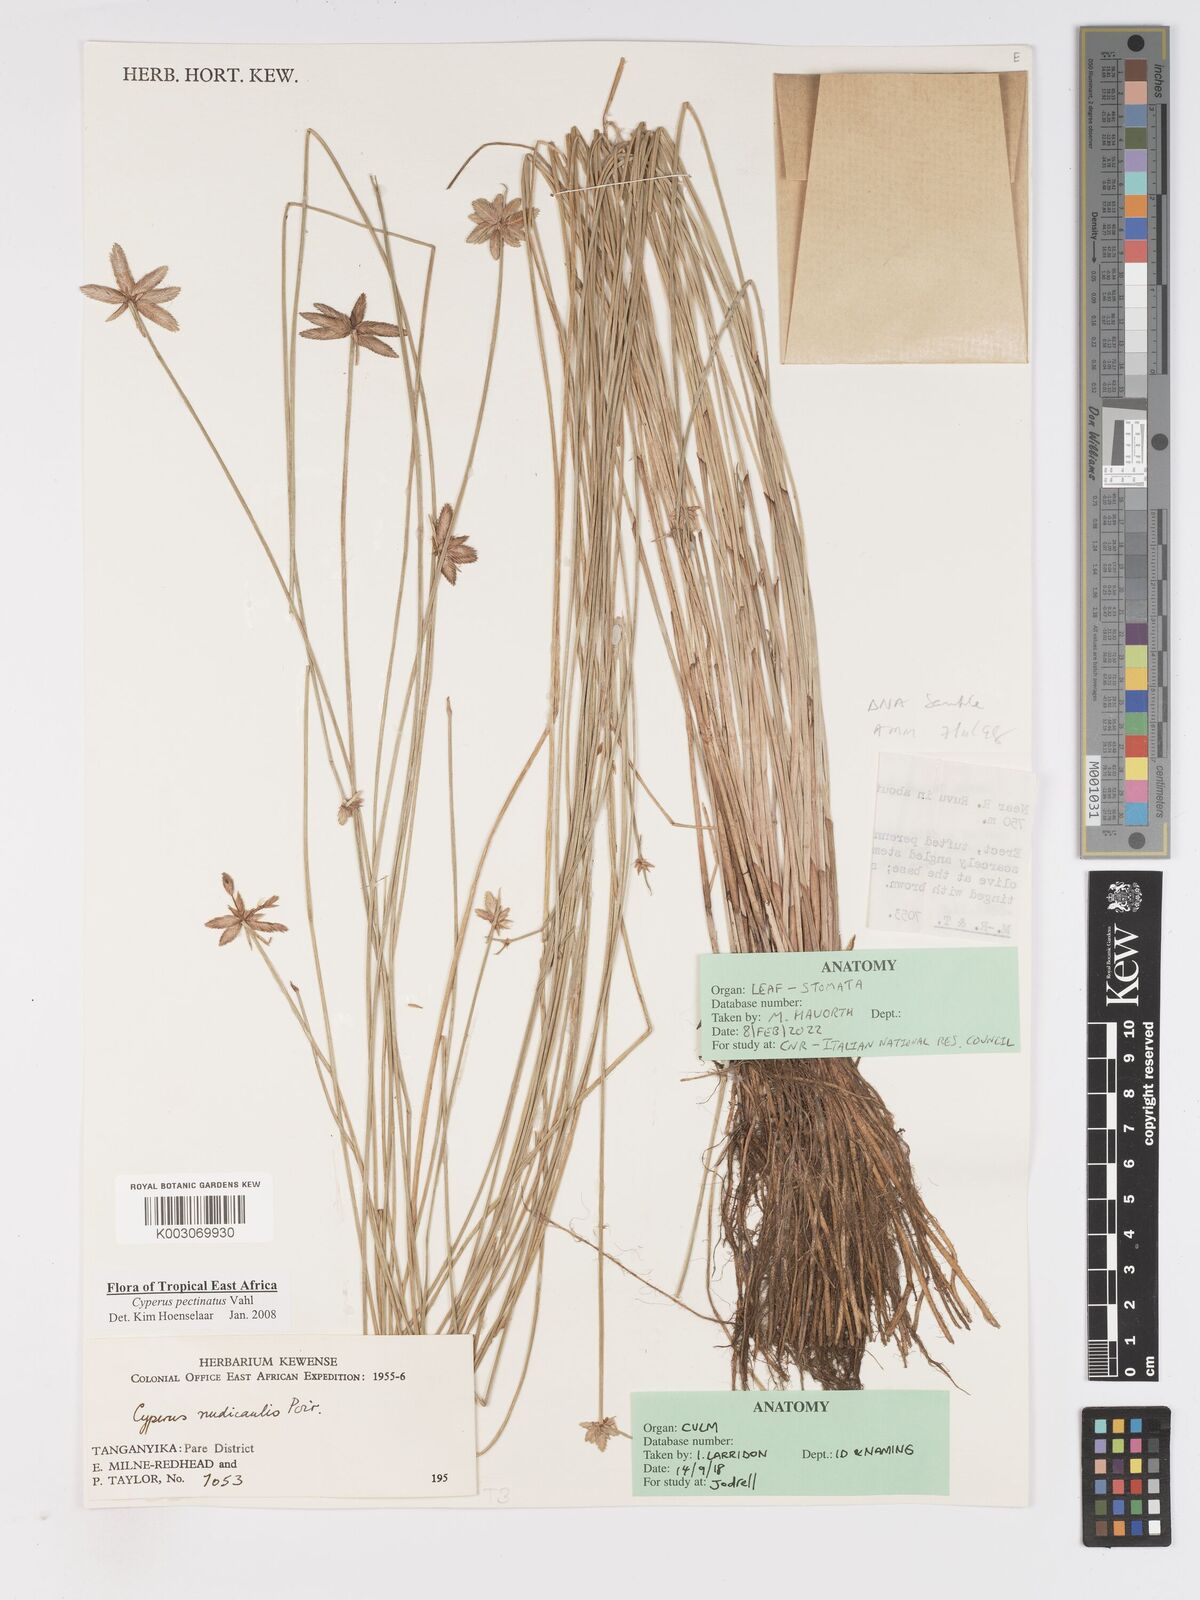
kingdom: Plantae
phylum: Tracheophyta
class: Liliopsida
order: Poales
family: Cyperaceae
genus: Cyperus
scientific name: Cyperus pectinatus
